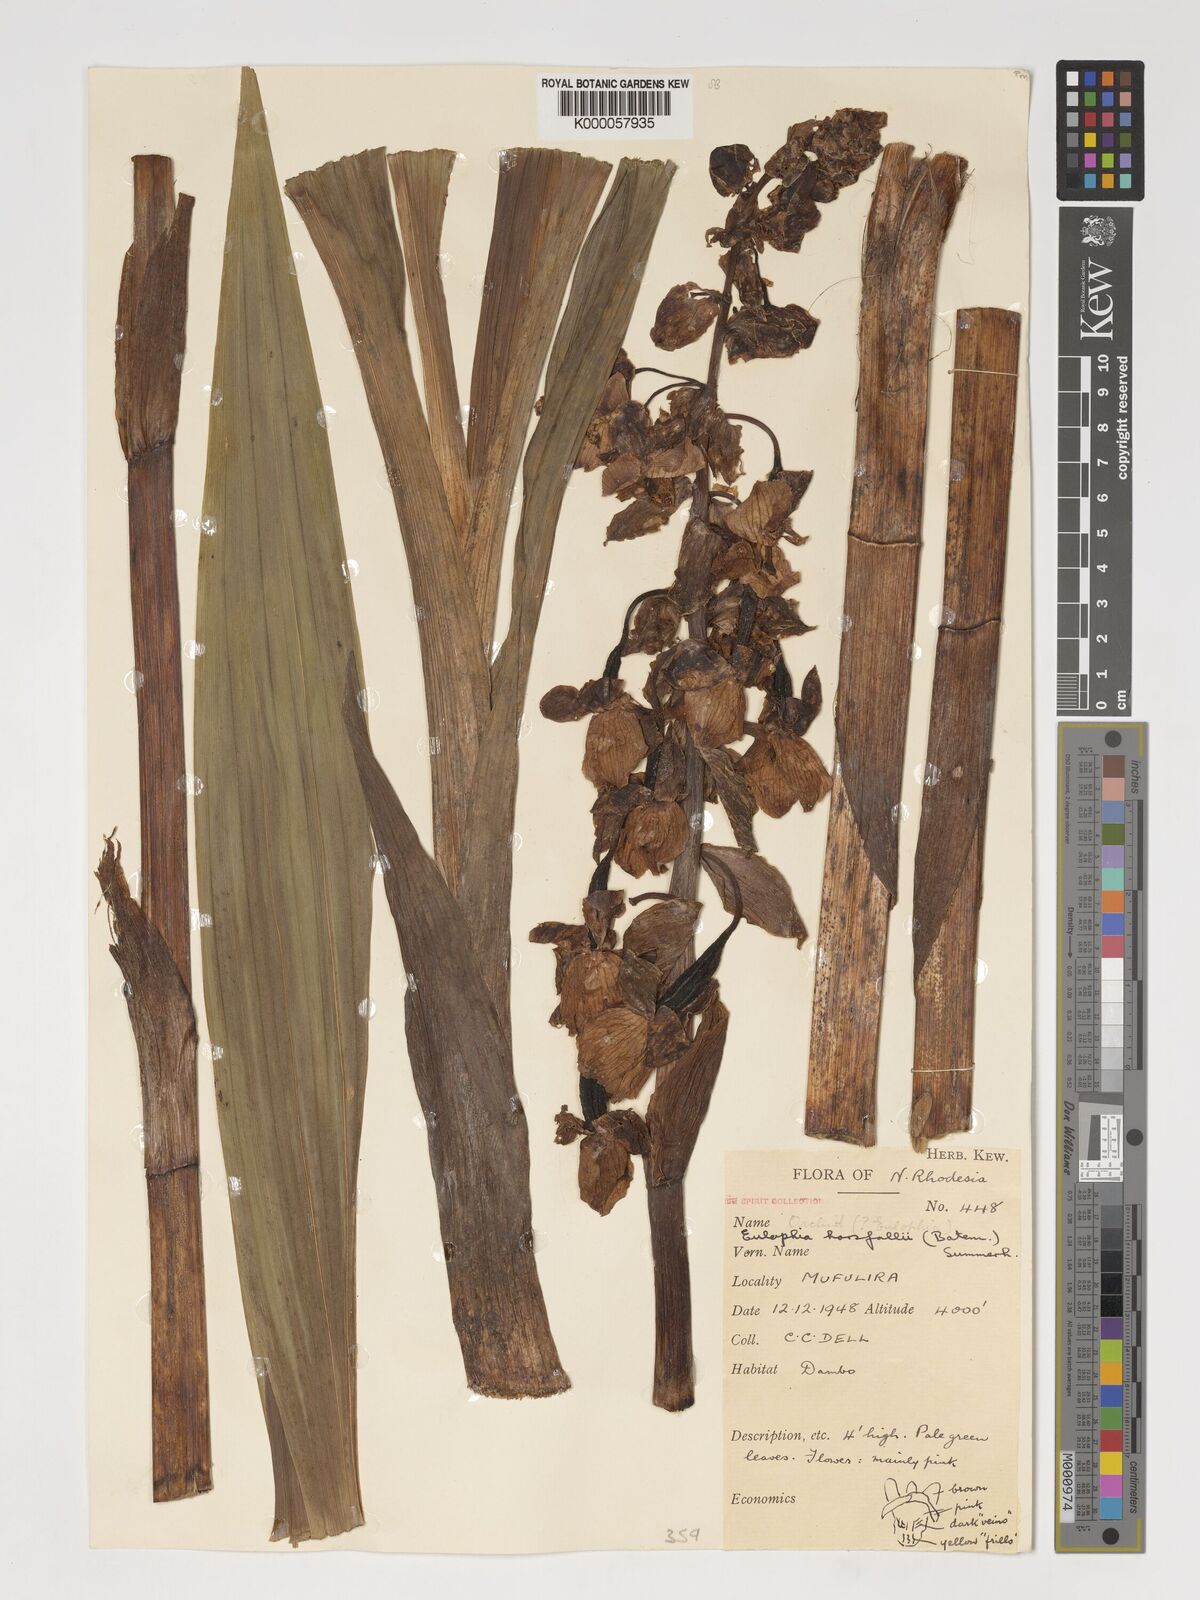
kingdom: Plantae
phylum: Tracheophyta
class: Liliopsida
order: Asparagales
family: Orchidaceae
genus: Eulophia
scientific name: Eulophia latilabris
